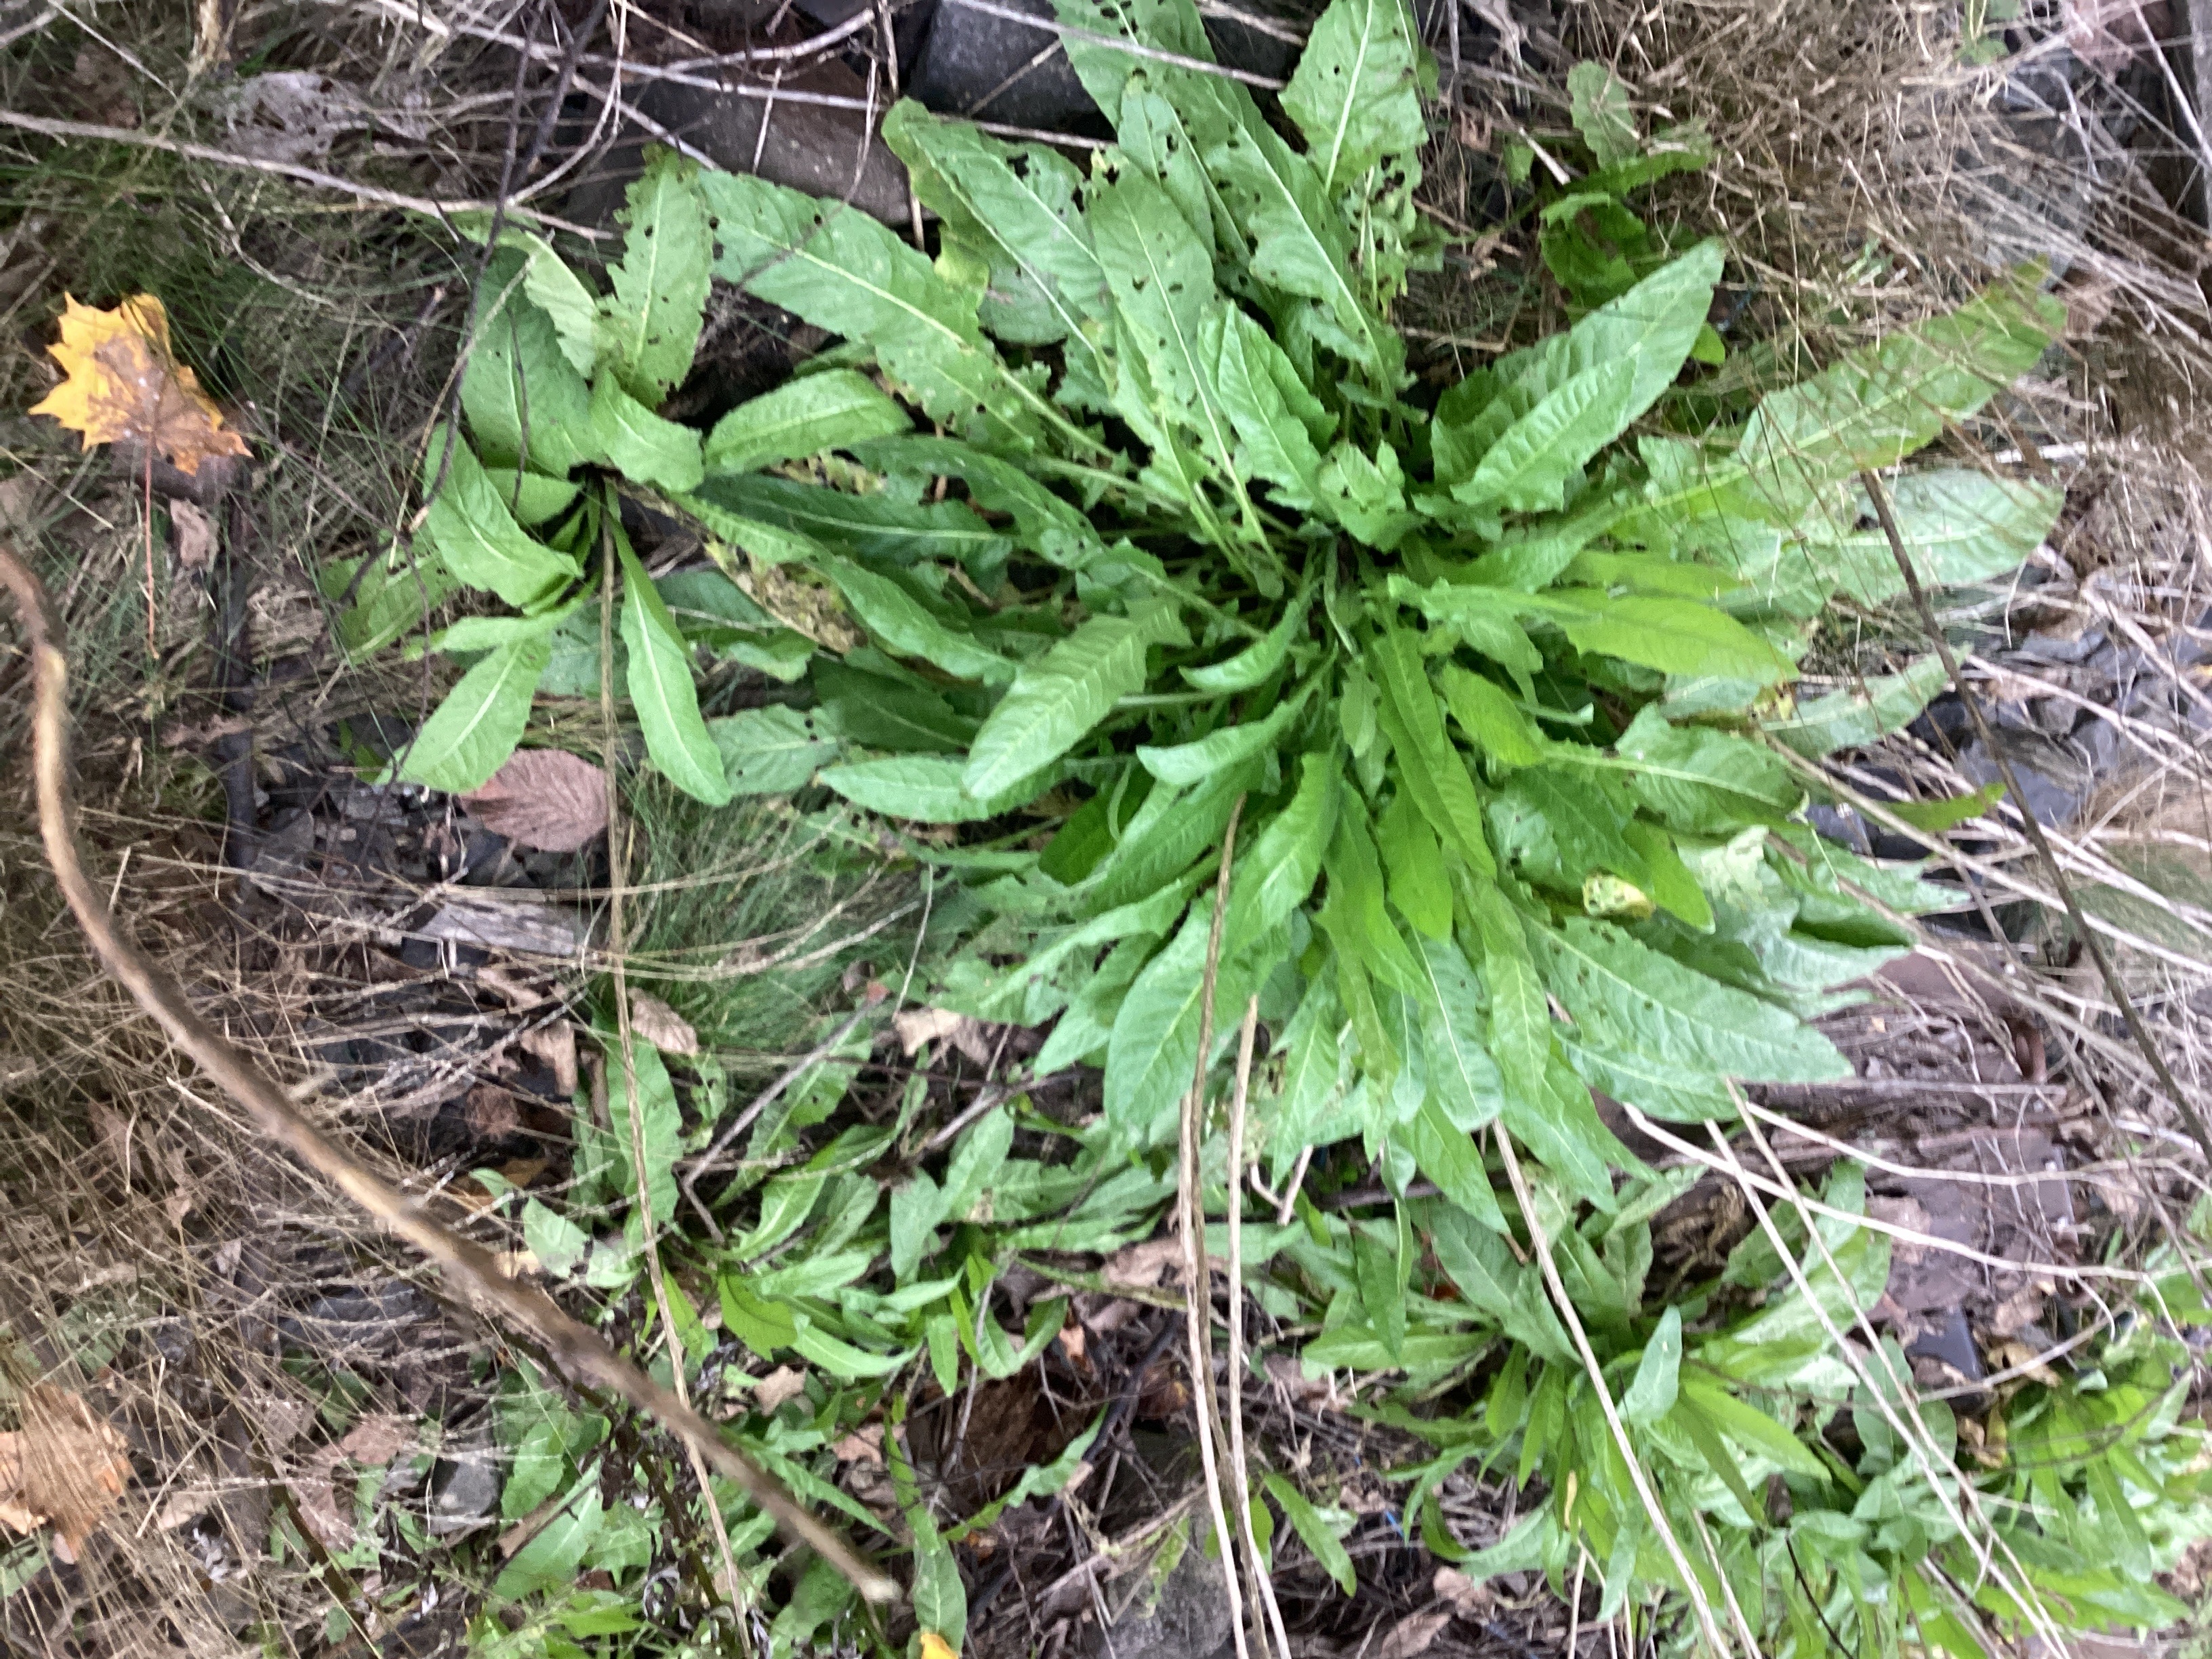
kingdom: Plantae
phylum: Tracheophyta
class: Magnoliopsida
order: Brassicales
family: Brassicaceae
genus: Bunias
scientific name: Bunias orientalis
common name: russekål
